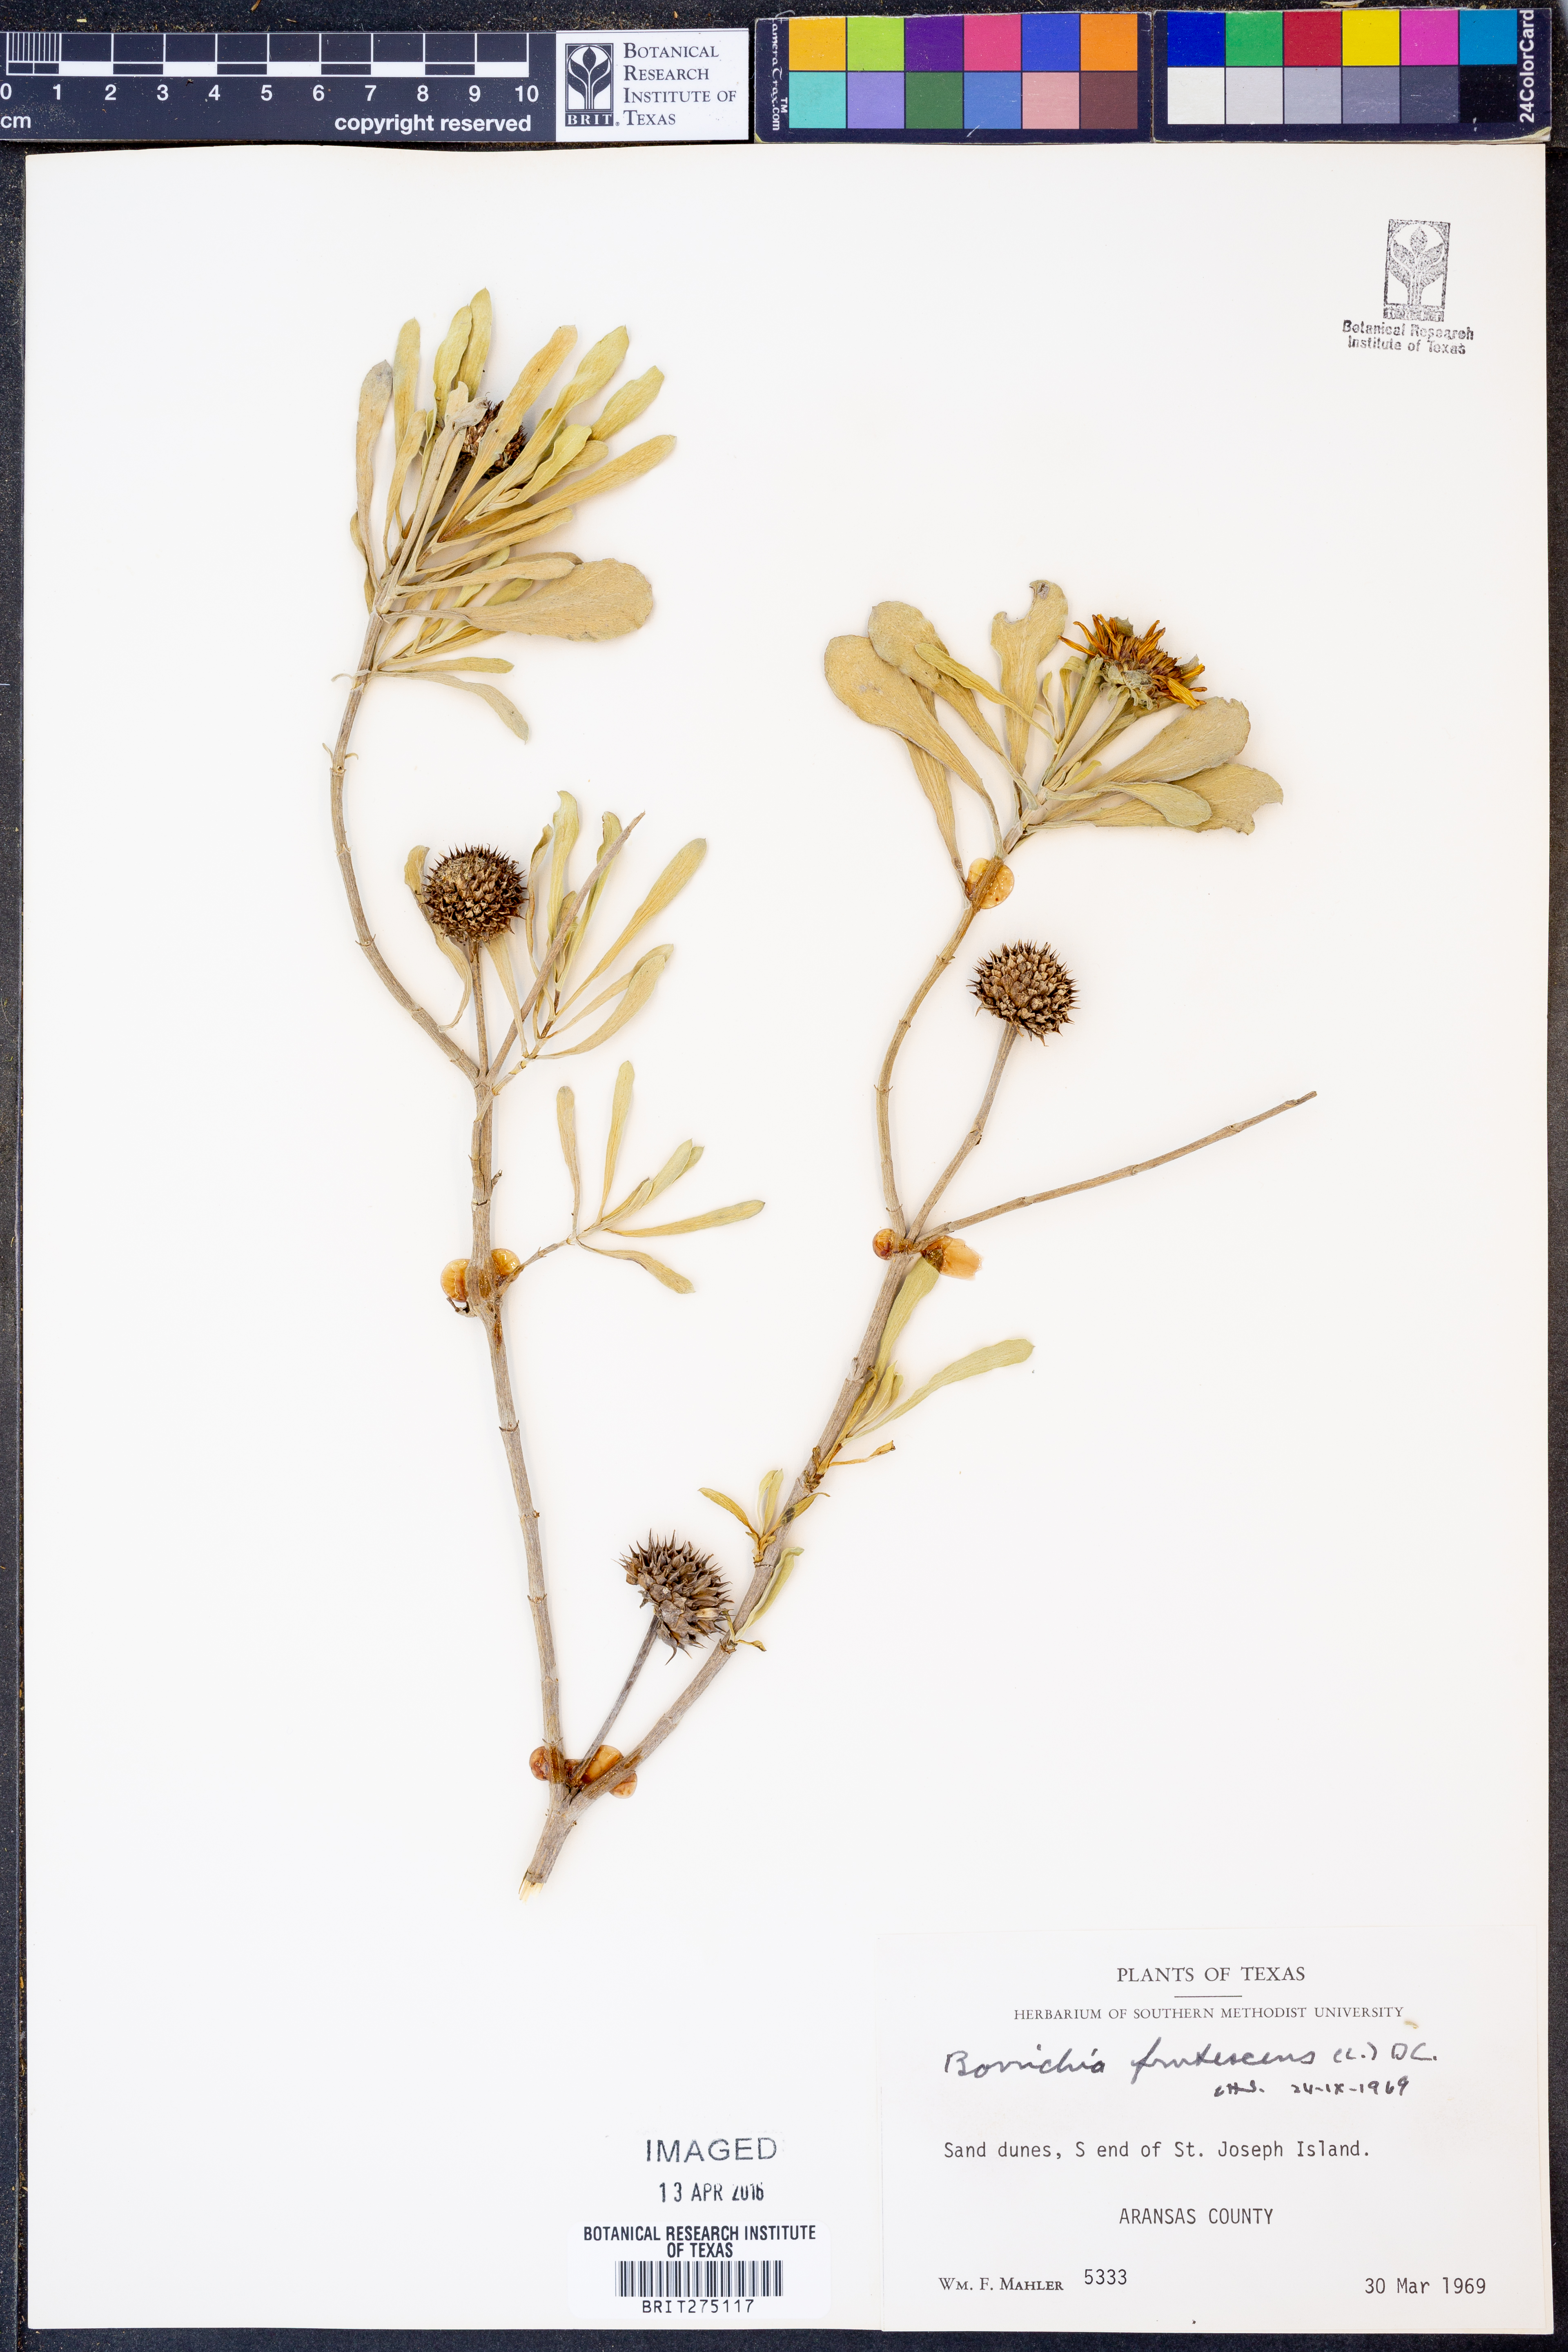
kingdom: Plantae
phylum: Tracheophyta
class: Magnoliopsida
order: Asterales
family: Asteraceae
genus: Borrichia
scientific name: Borrichia frutescens
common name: Sea oxeye
